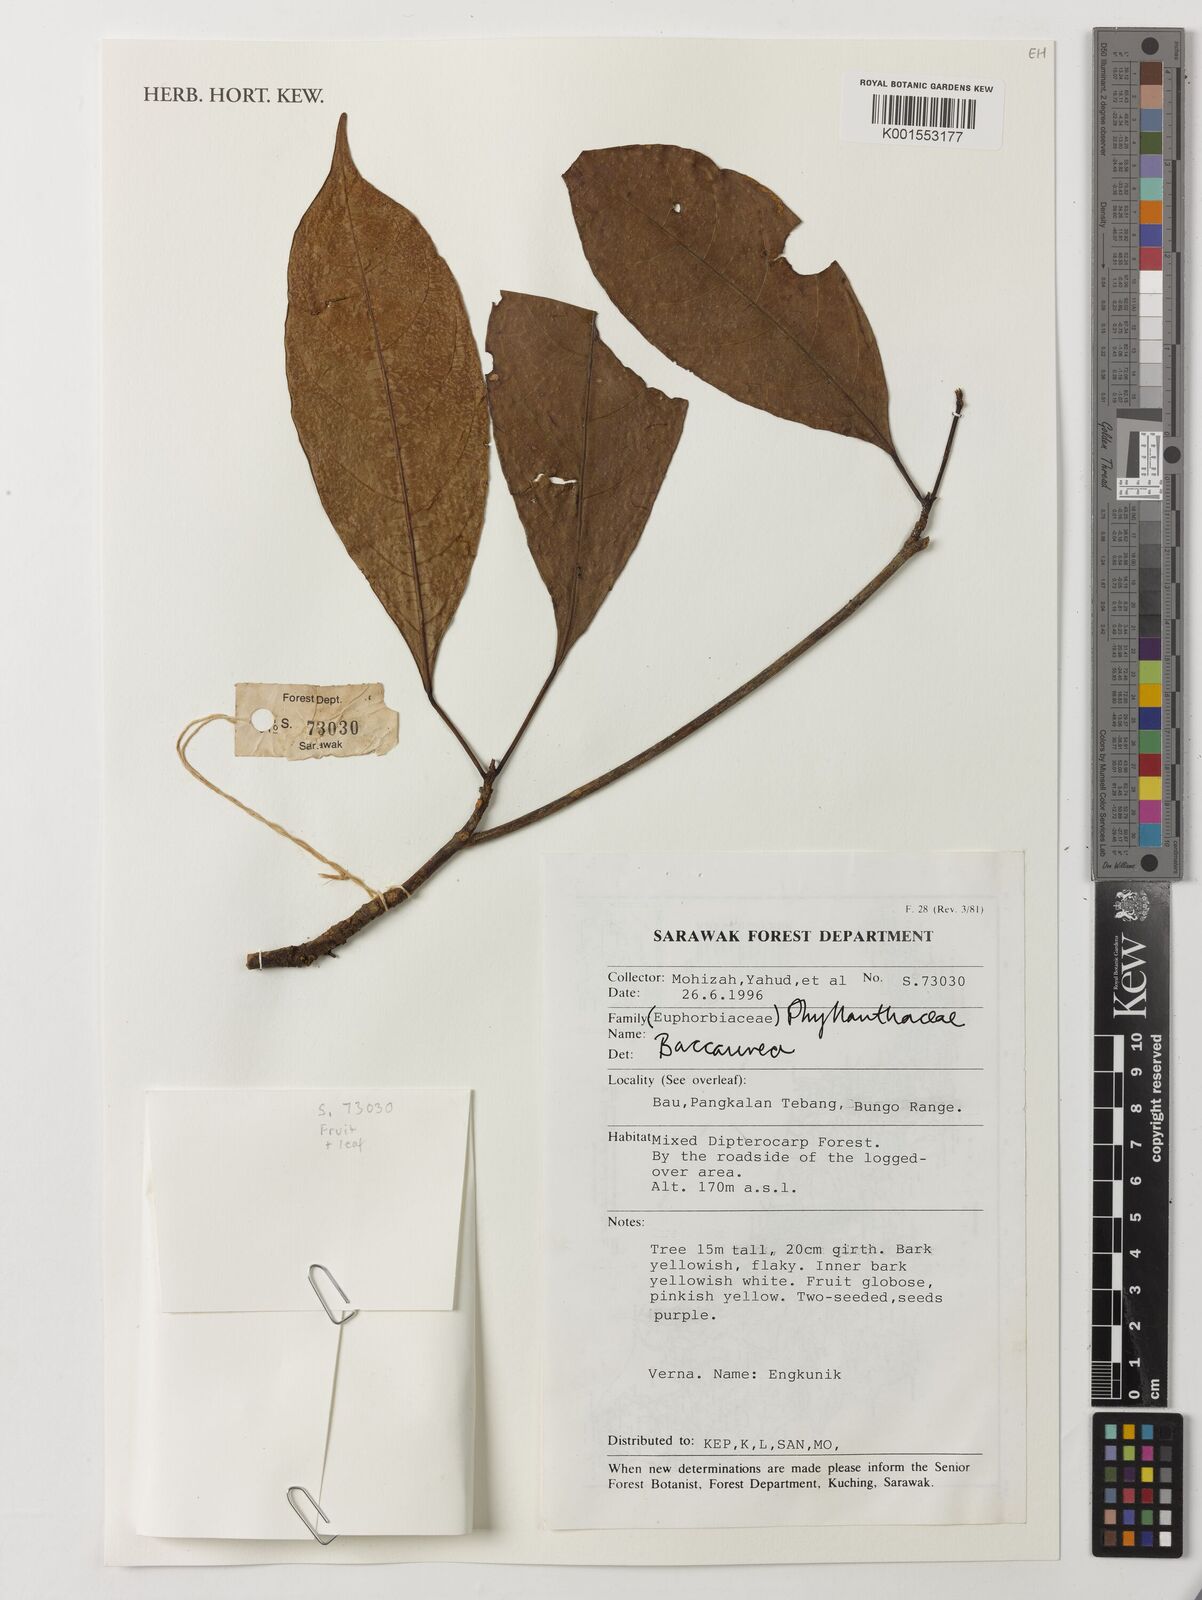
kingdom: Plantae
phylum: Tracheophyta
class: Magnoliopsida
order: Malpighiales
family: Phyllanthaceae
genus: Baccaurea
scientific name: Baccaurea
